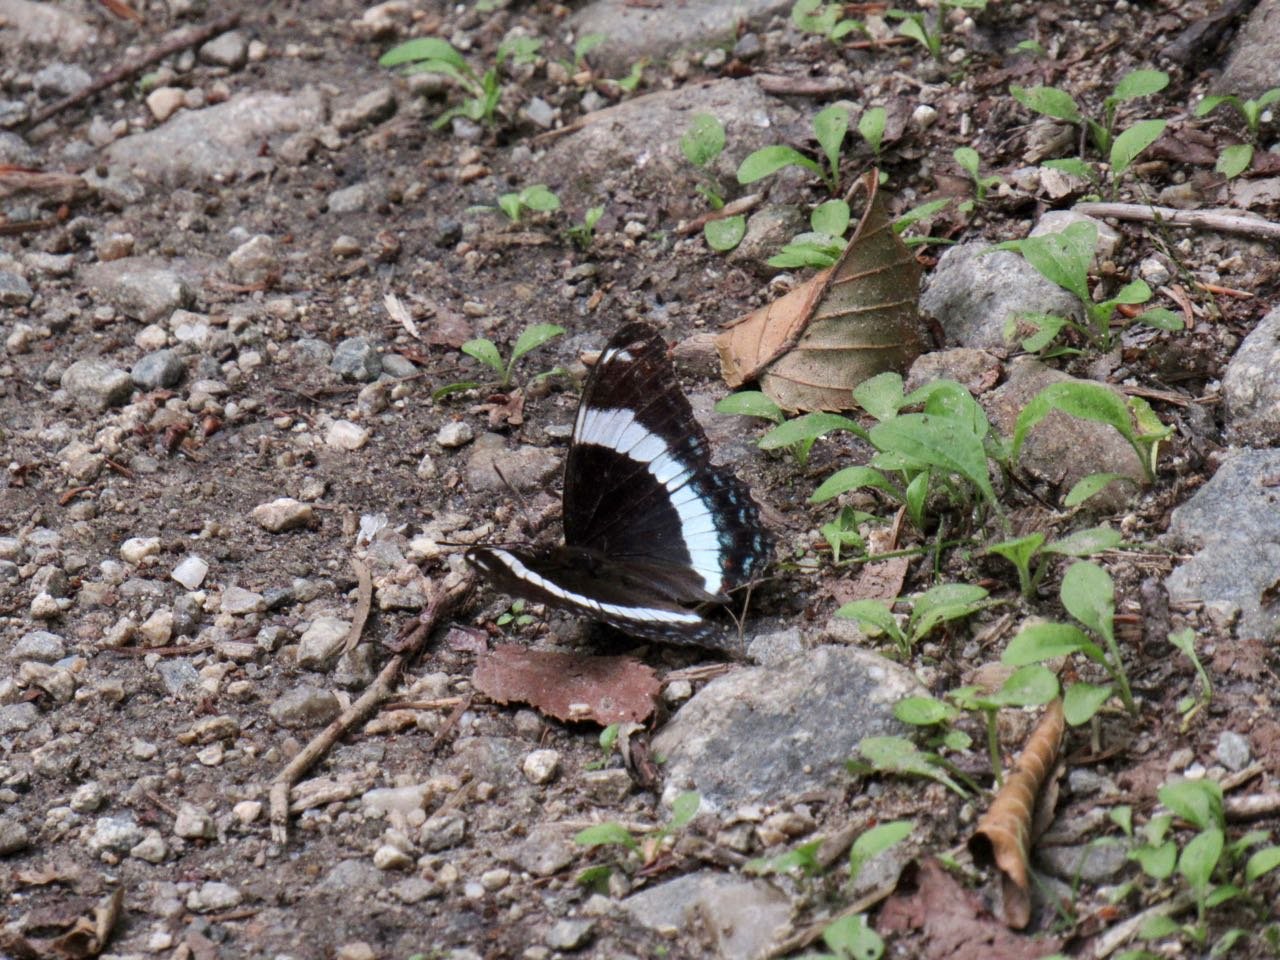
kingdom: Animalia
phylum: Arthropoda
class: Insecta
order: Lepidoptera
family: Nymphalidae
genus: Limenitis
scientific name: Limenitis arthemis
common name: Red-spotted Admiral
